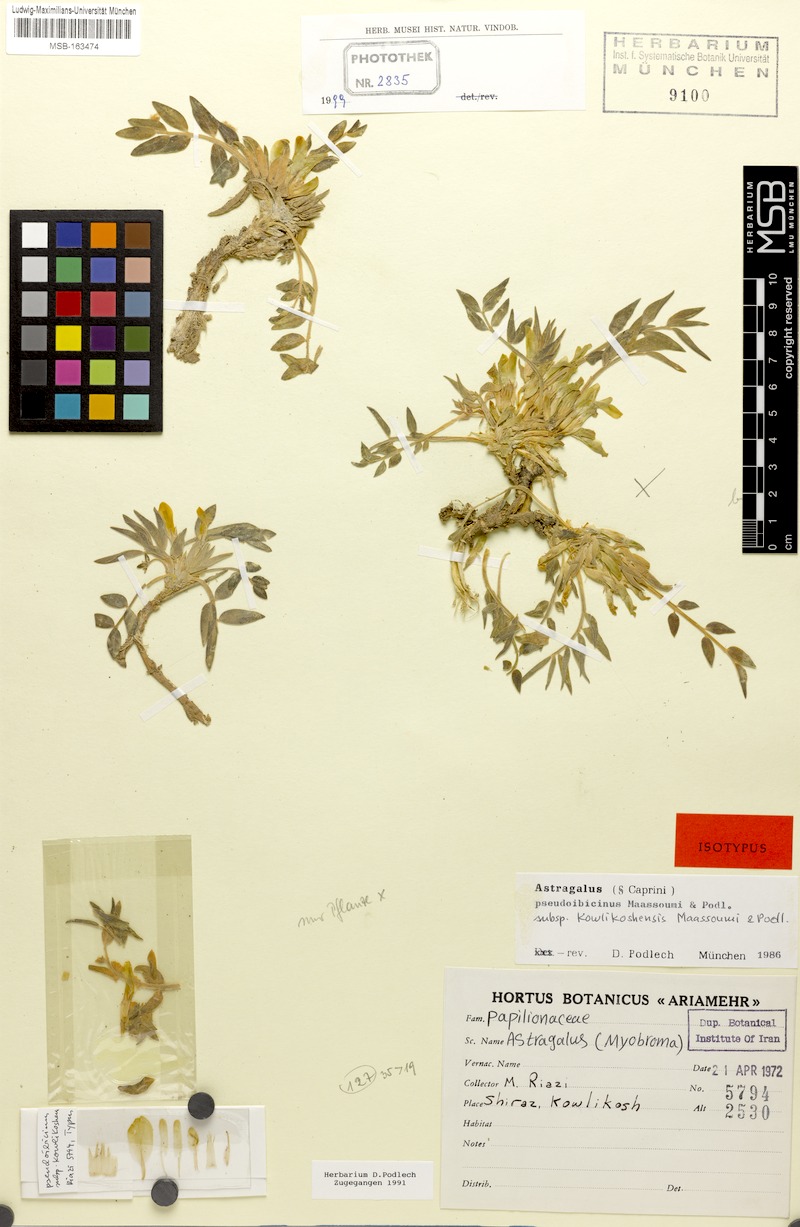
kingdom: Plantae
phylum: Tracheophyta
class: Magnoliopsida
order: Fabales
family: Fabaceae
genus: Astragalus
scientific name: Astragalus pseudoibicinus
